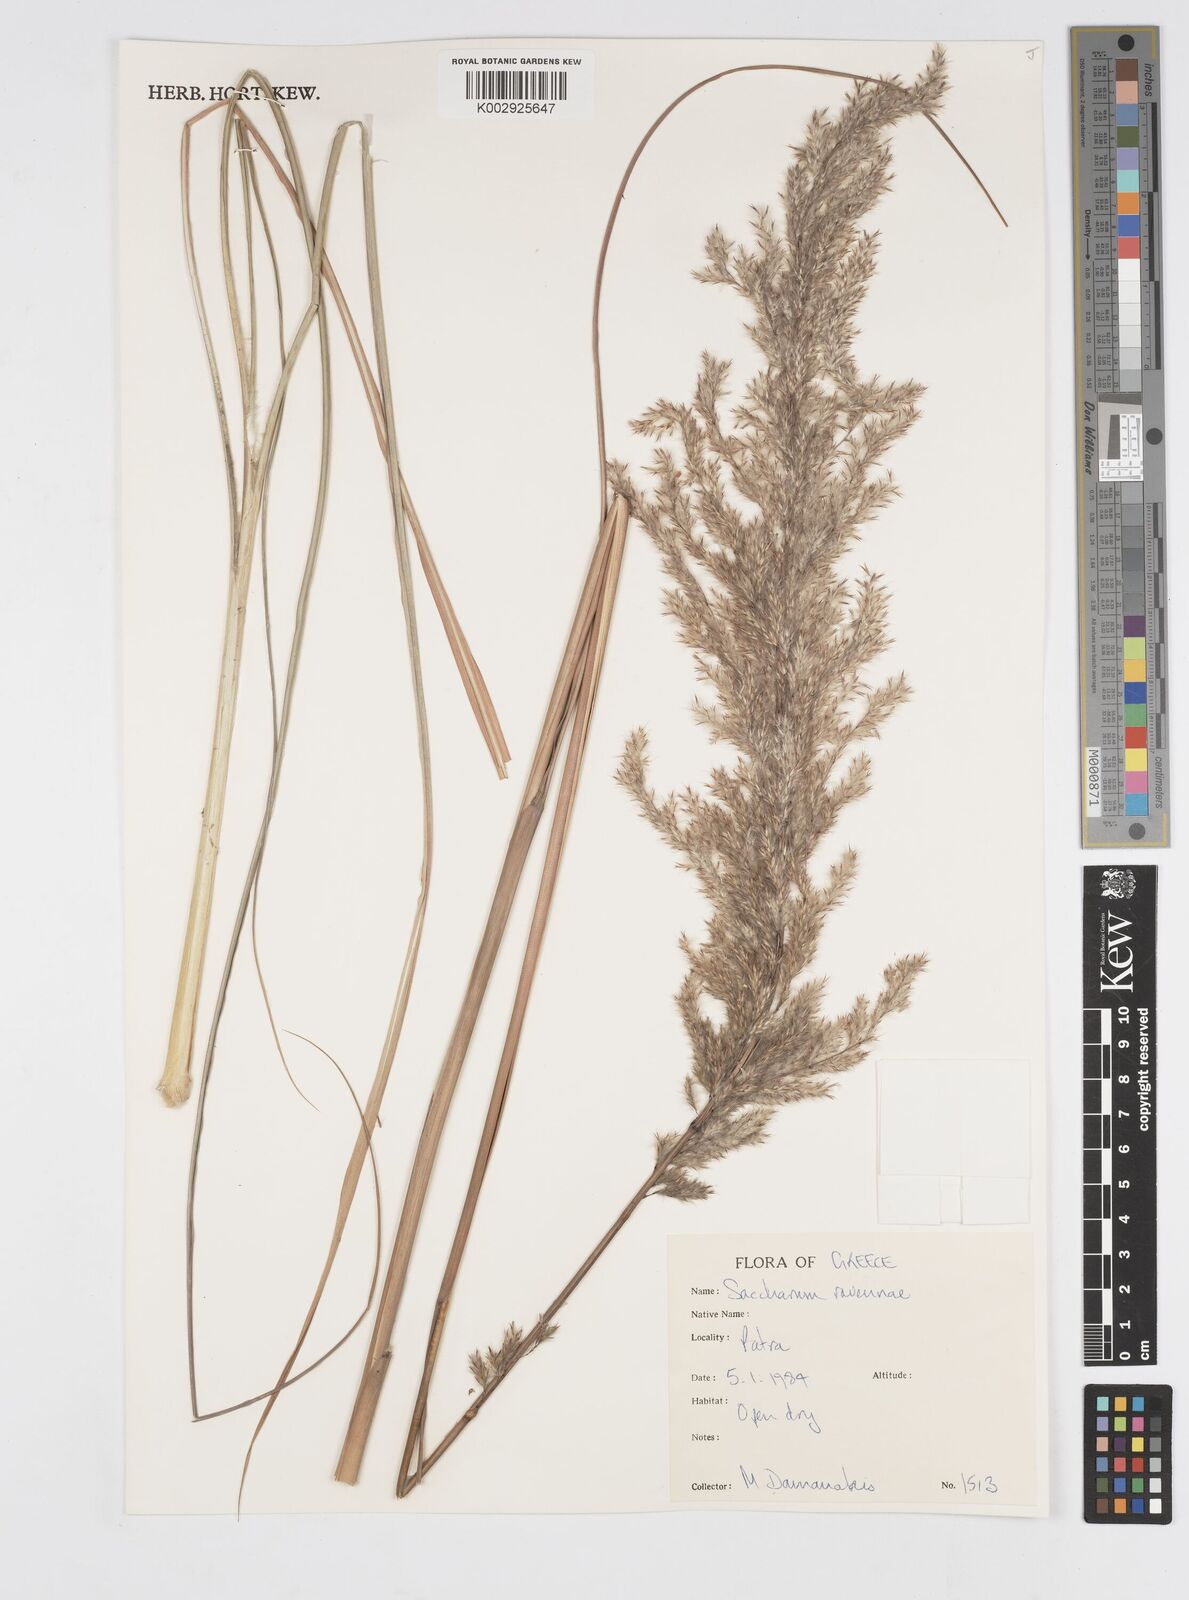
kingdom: Plantae
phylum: Tracheophyta
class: Liliopsida
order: Poales
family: Poaceae
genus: Tripidium
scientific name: Tripidium ravennae
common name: Ravenna grass
